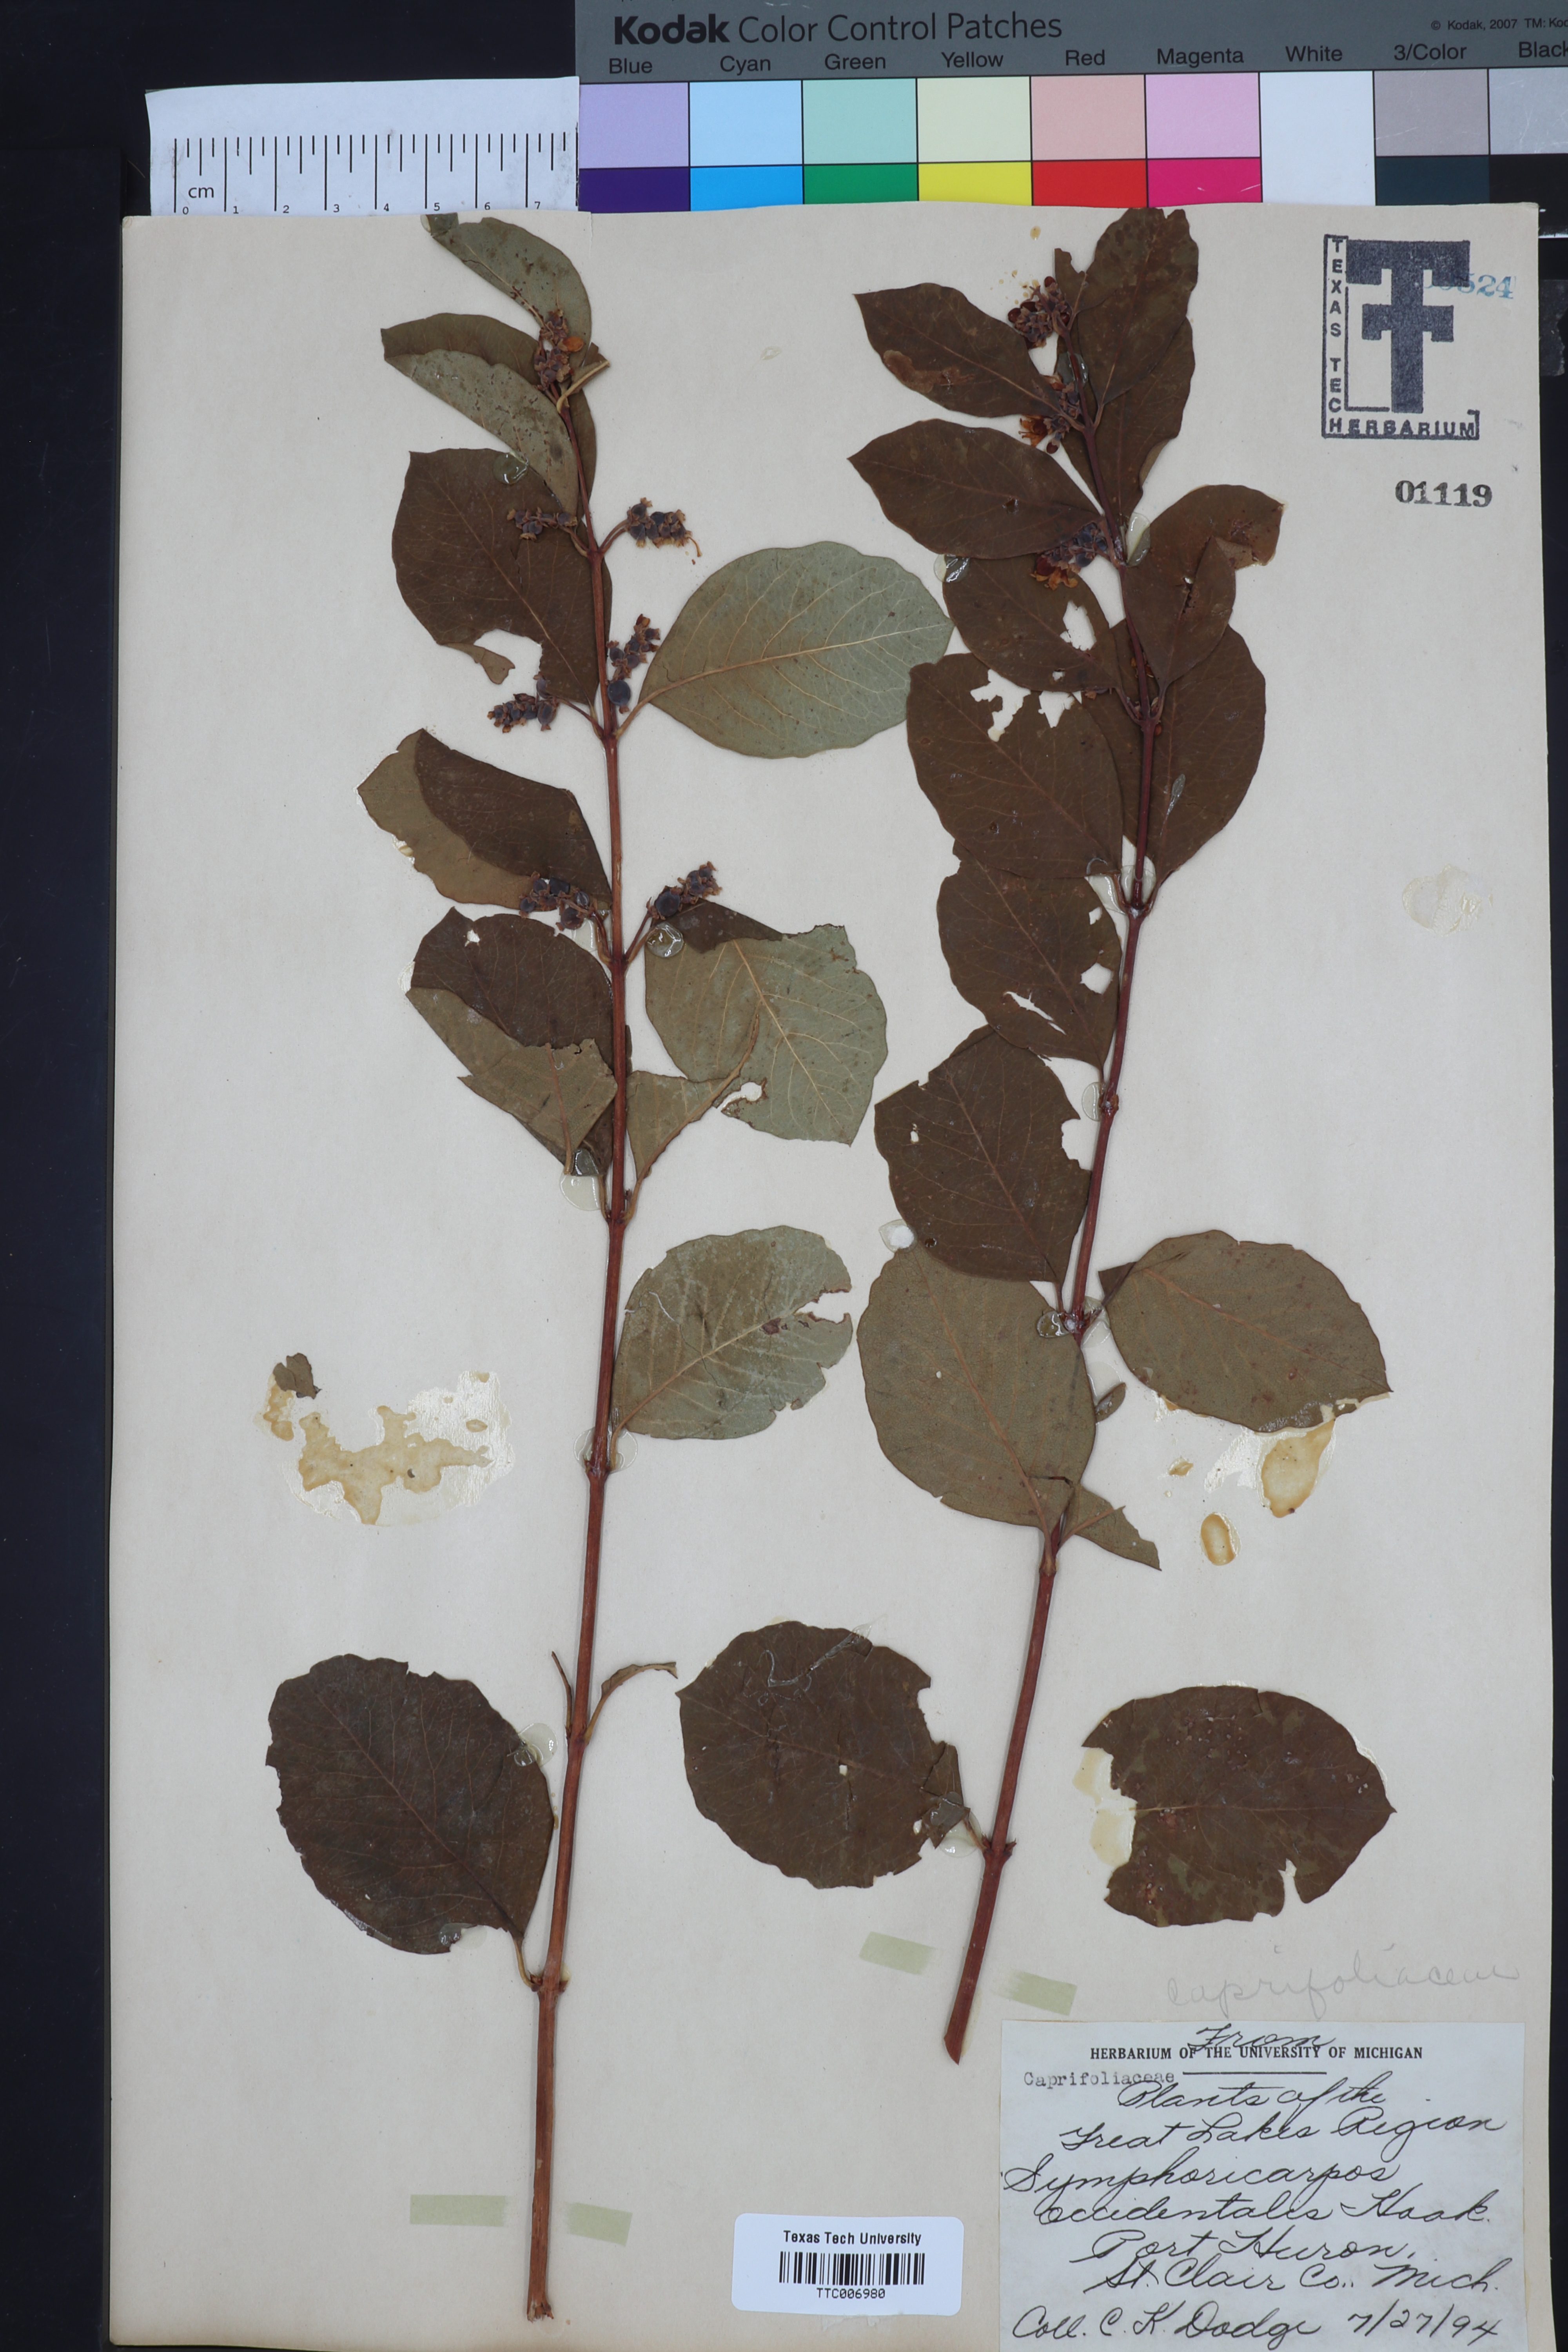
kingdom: Plantae
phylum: Tracheophyta
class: Magnoliopsida
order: Dipsacales
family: Caprifoliaceae
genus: Symphoricarpos
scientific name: Symphoricarpos occidentalis
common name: Wolfberry
